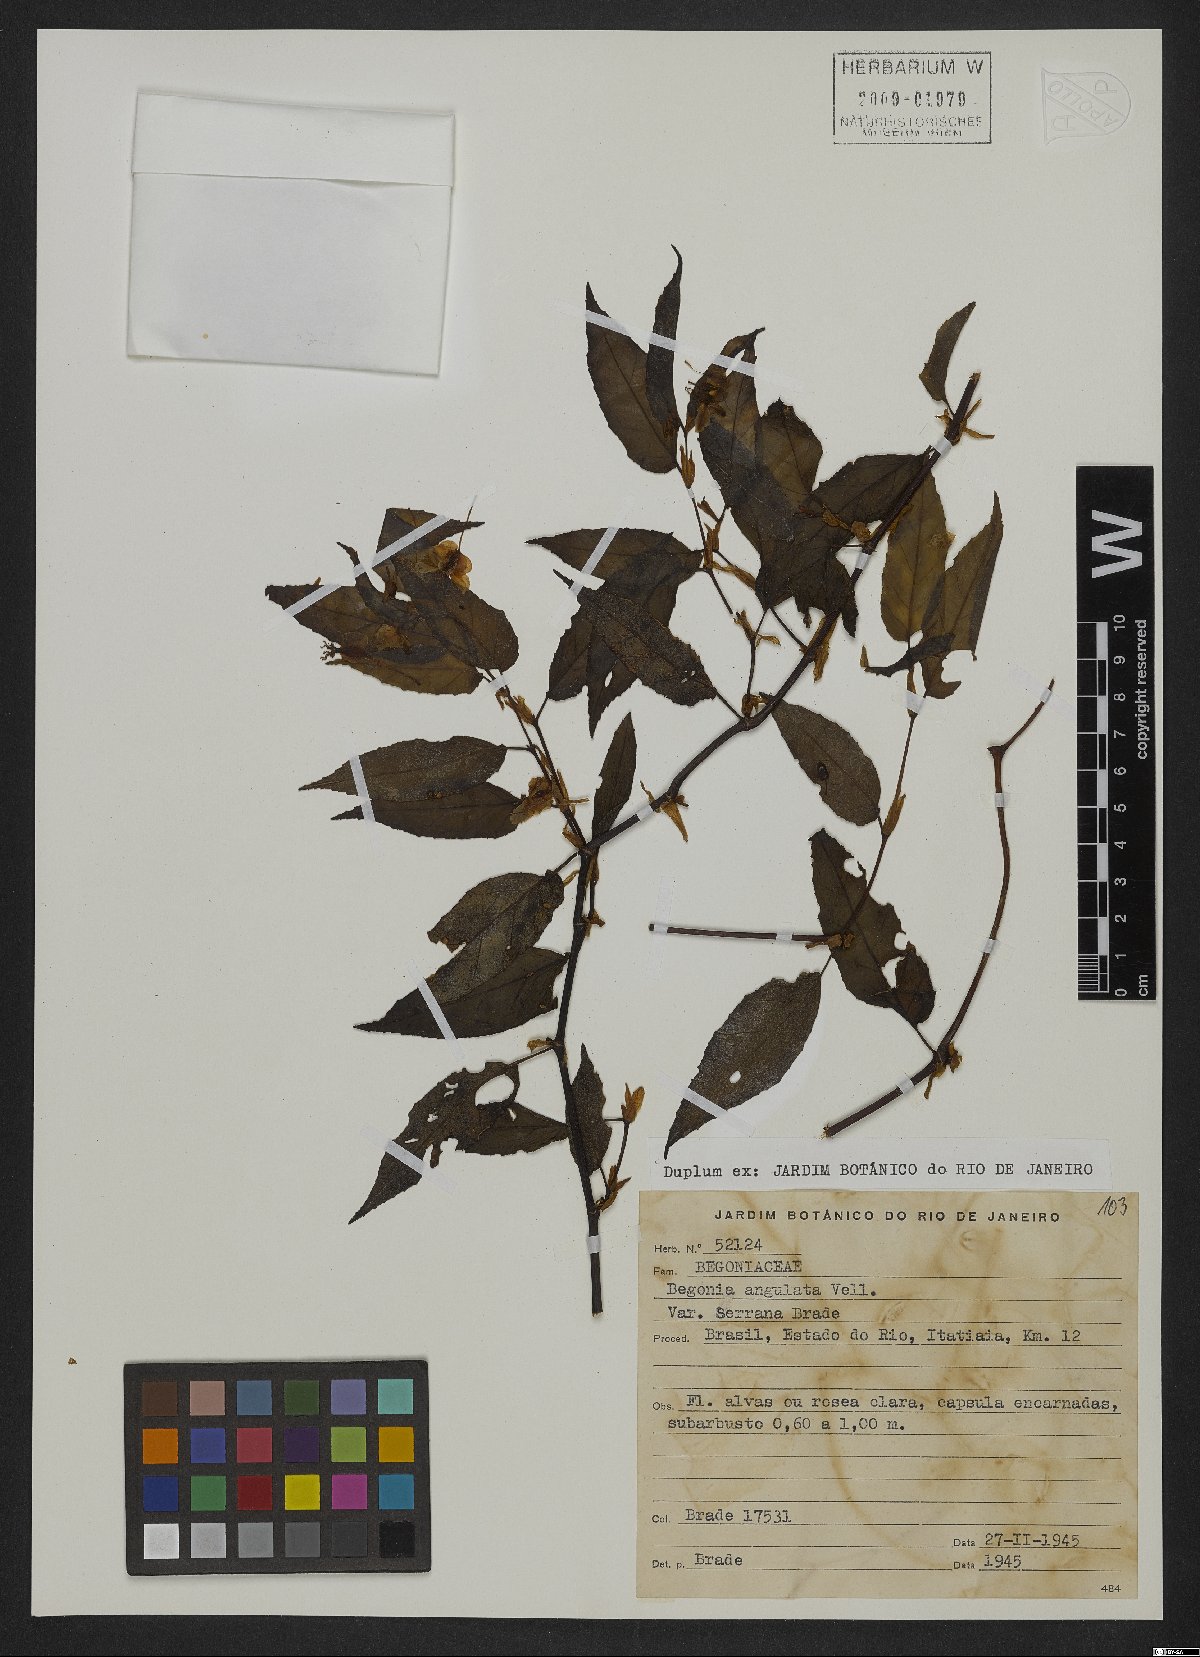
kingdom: Plantae
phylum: Tracheophyta
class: Magnoliopsida
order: Cucurbitales
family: Begoniaceae
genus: Begonia
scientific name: Begonia angulata
